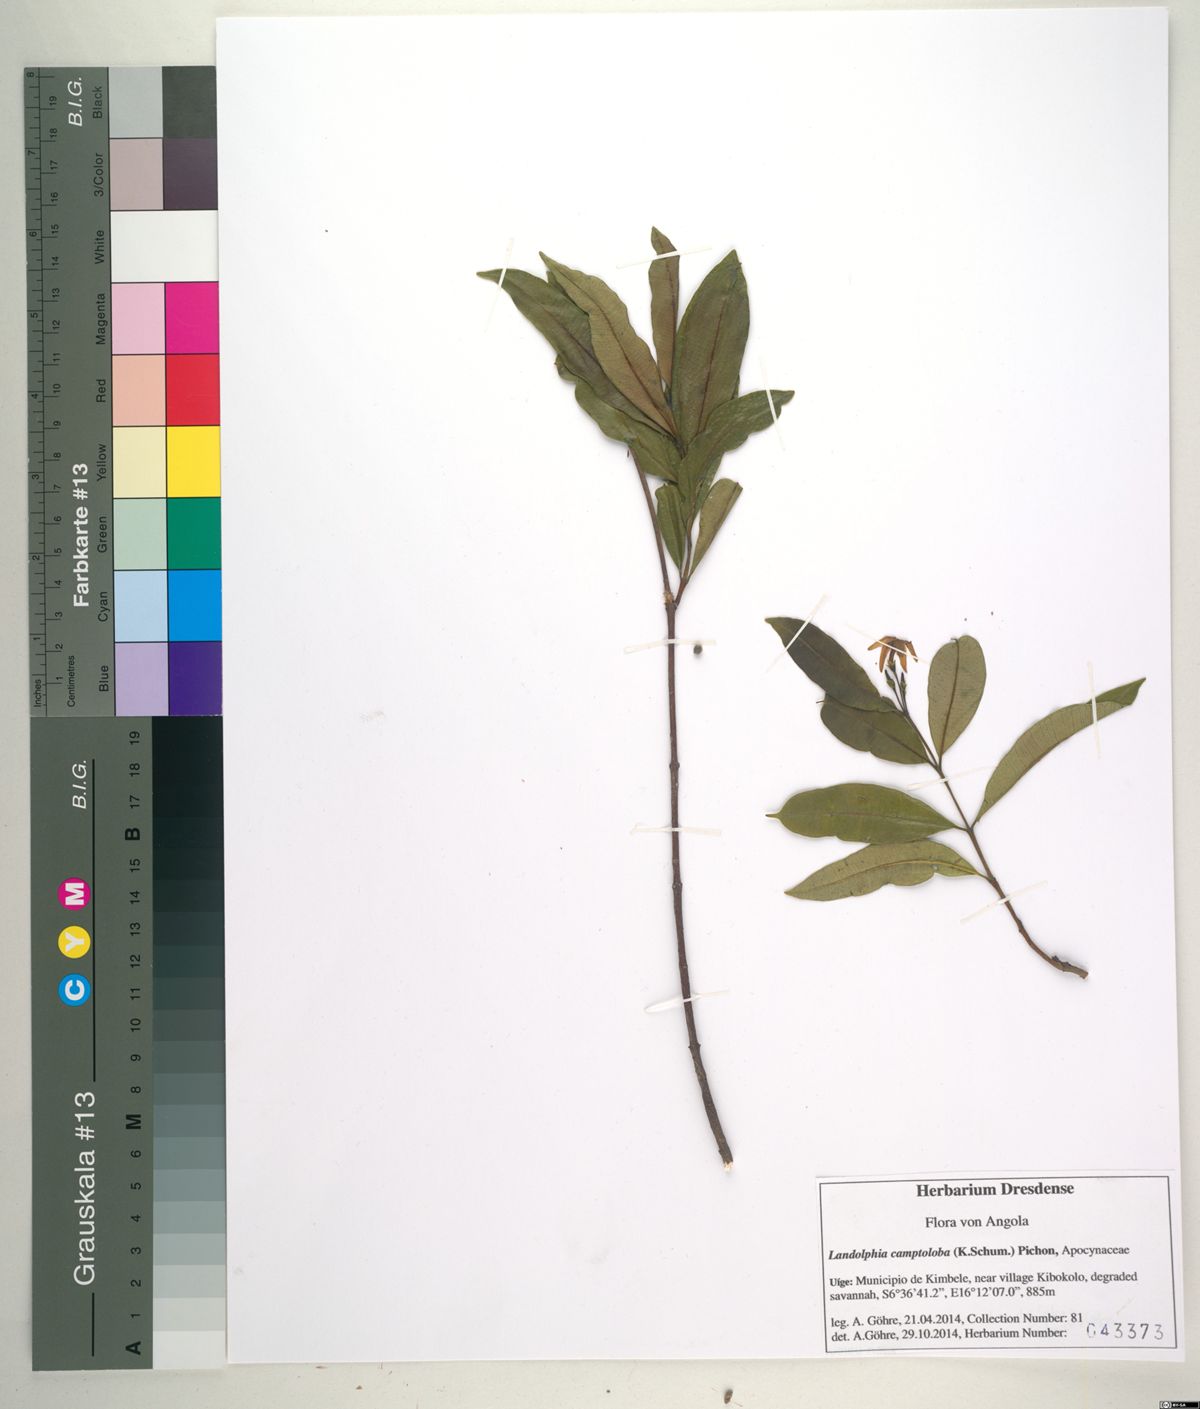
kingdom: Plantae
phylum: Tracheophyta
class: Magnoliopsida
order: Gentianales
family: Apocynaceae
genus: Landolphia
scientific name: Landolphia camptoloba
